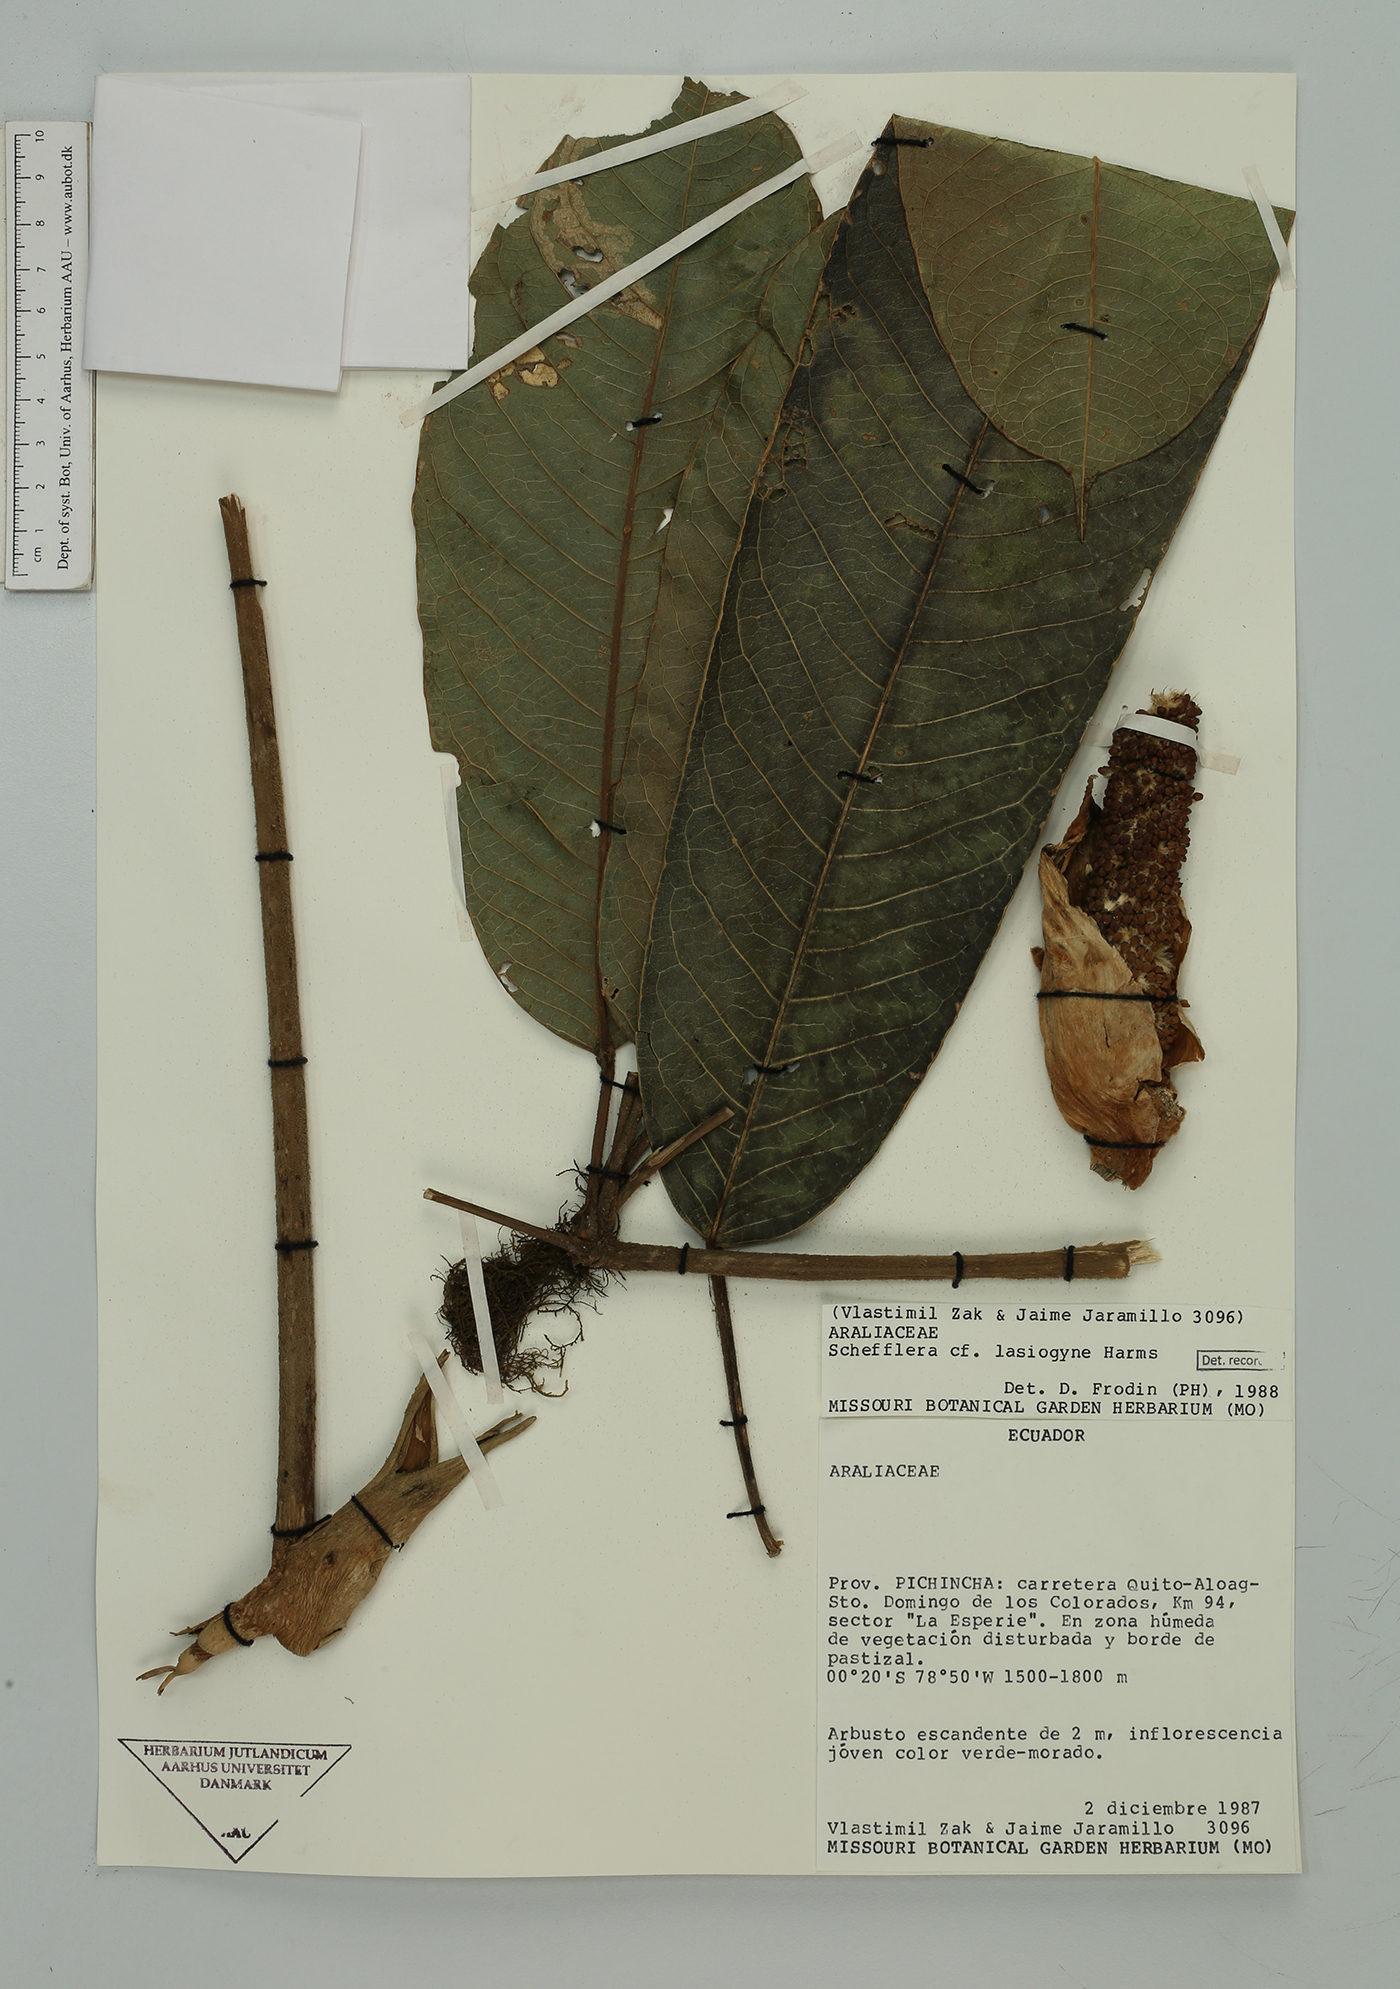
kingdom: Plantae
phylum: Tracheophyta
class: Magnoliopsida
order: Apiales
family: Araliaceae
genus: Sciodaphyllum
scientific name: Sciodaphyllum lasiogyne
